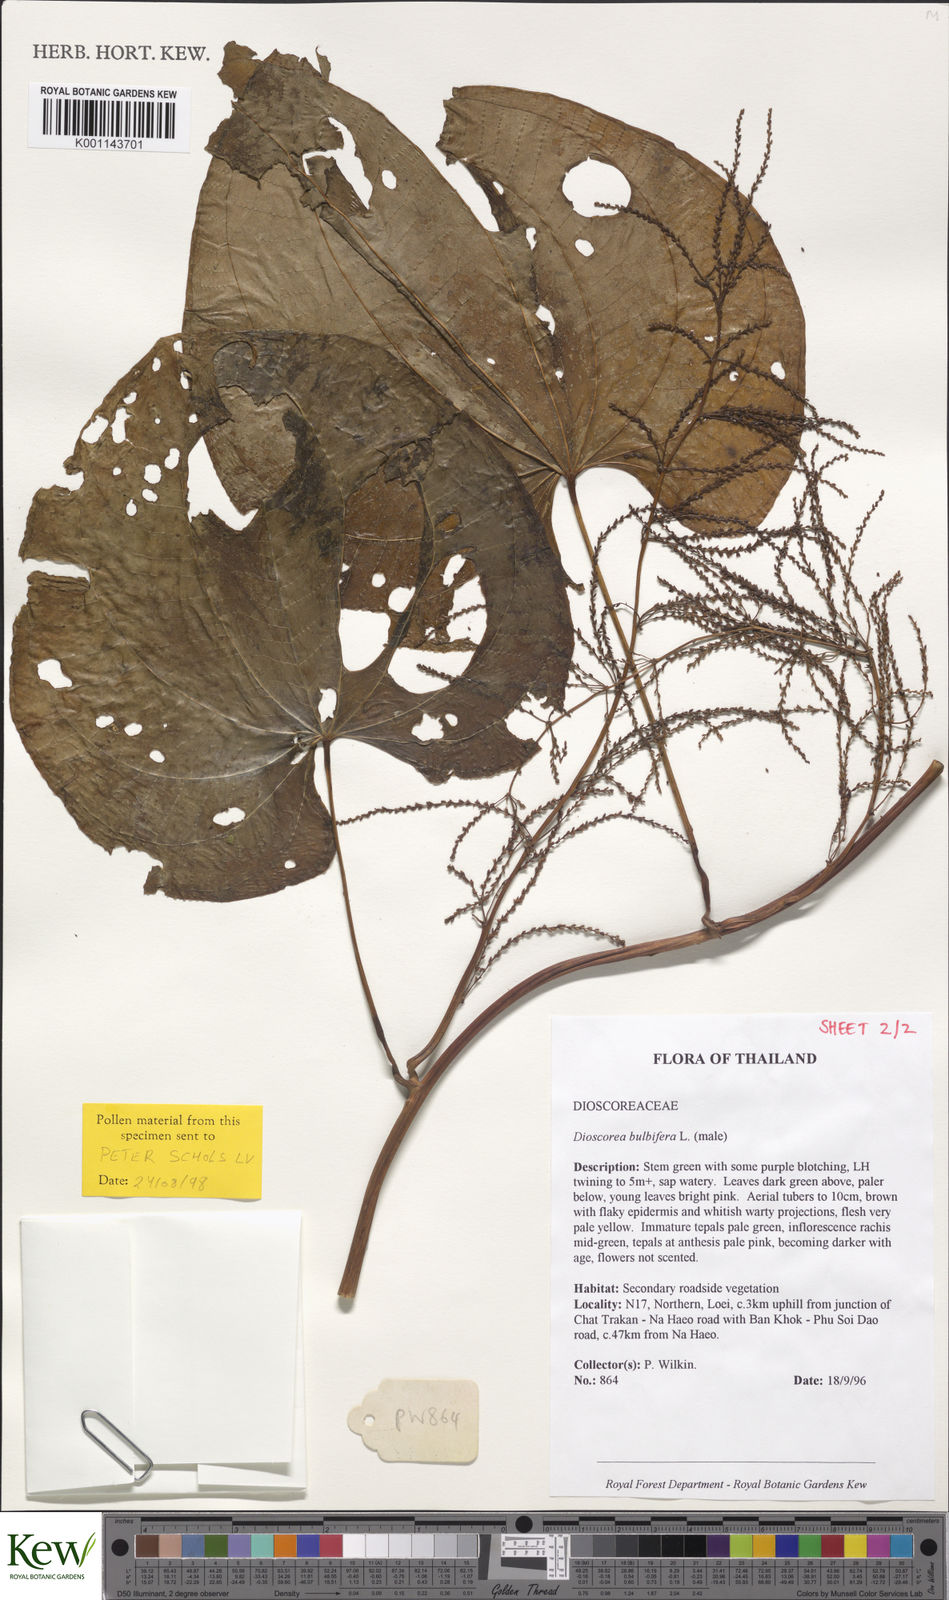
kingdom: Plantae
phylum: Tracheophyta
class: Liliopsida
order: Dioscoreales
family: Dioscoreaceae
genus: Dioscorea
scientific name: Dioscorea bulbifera
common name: Air yam
